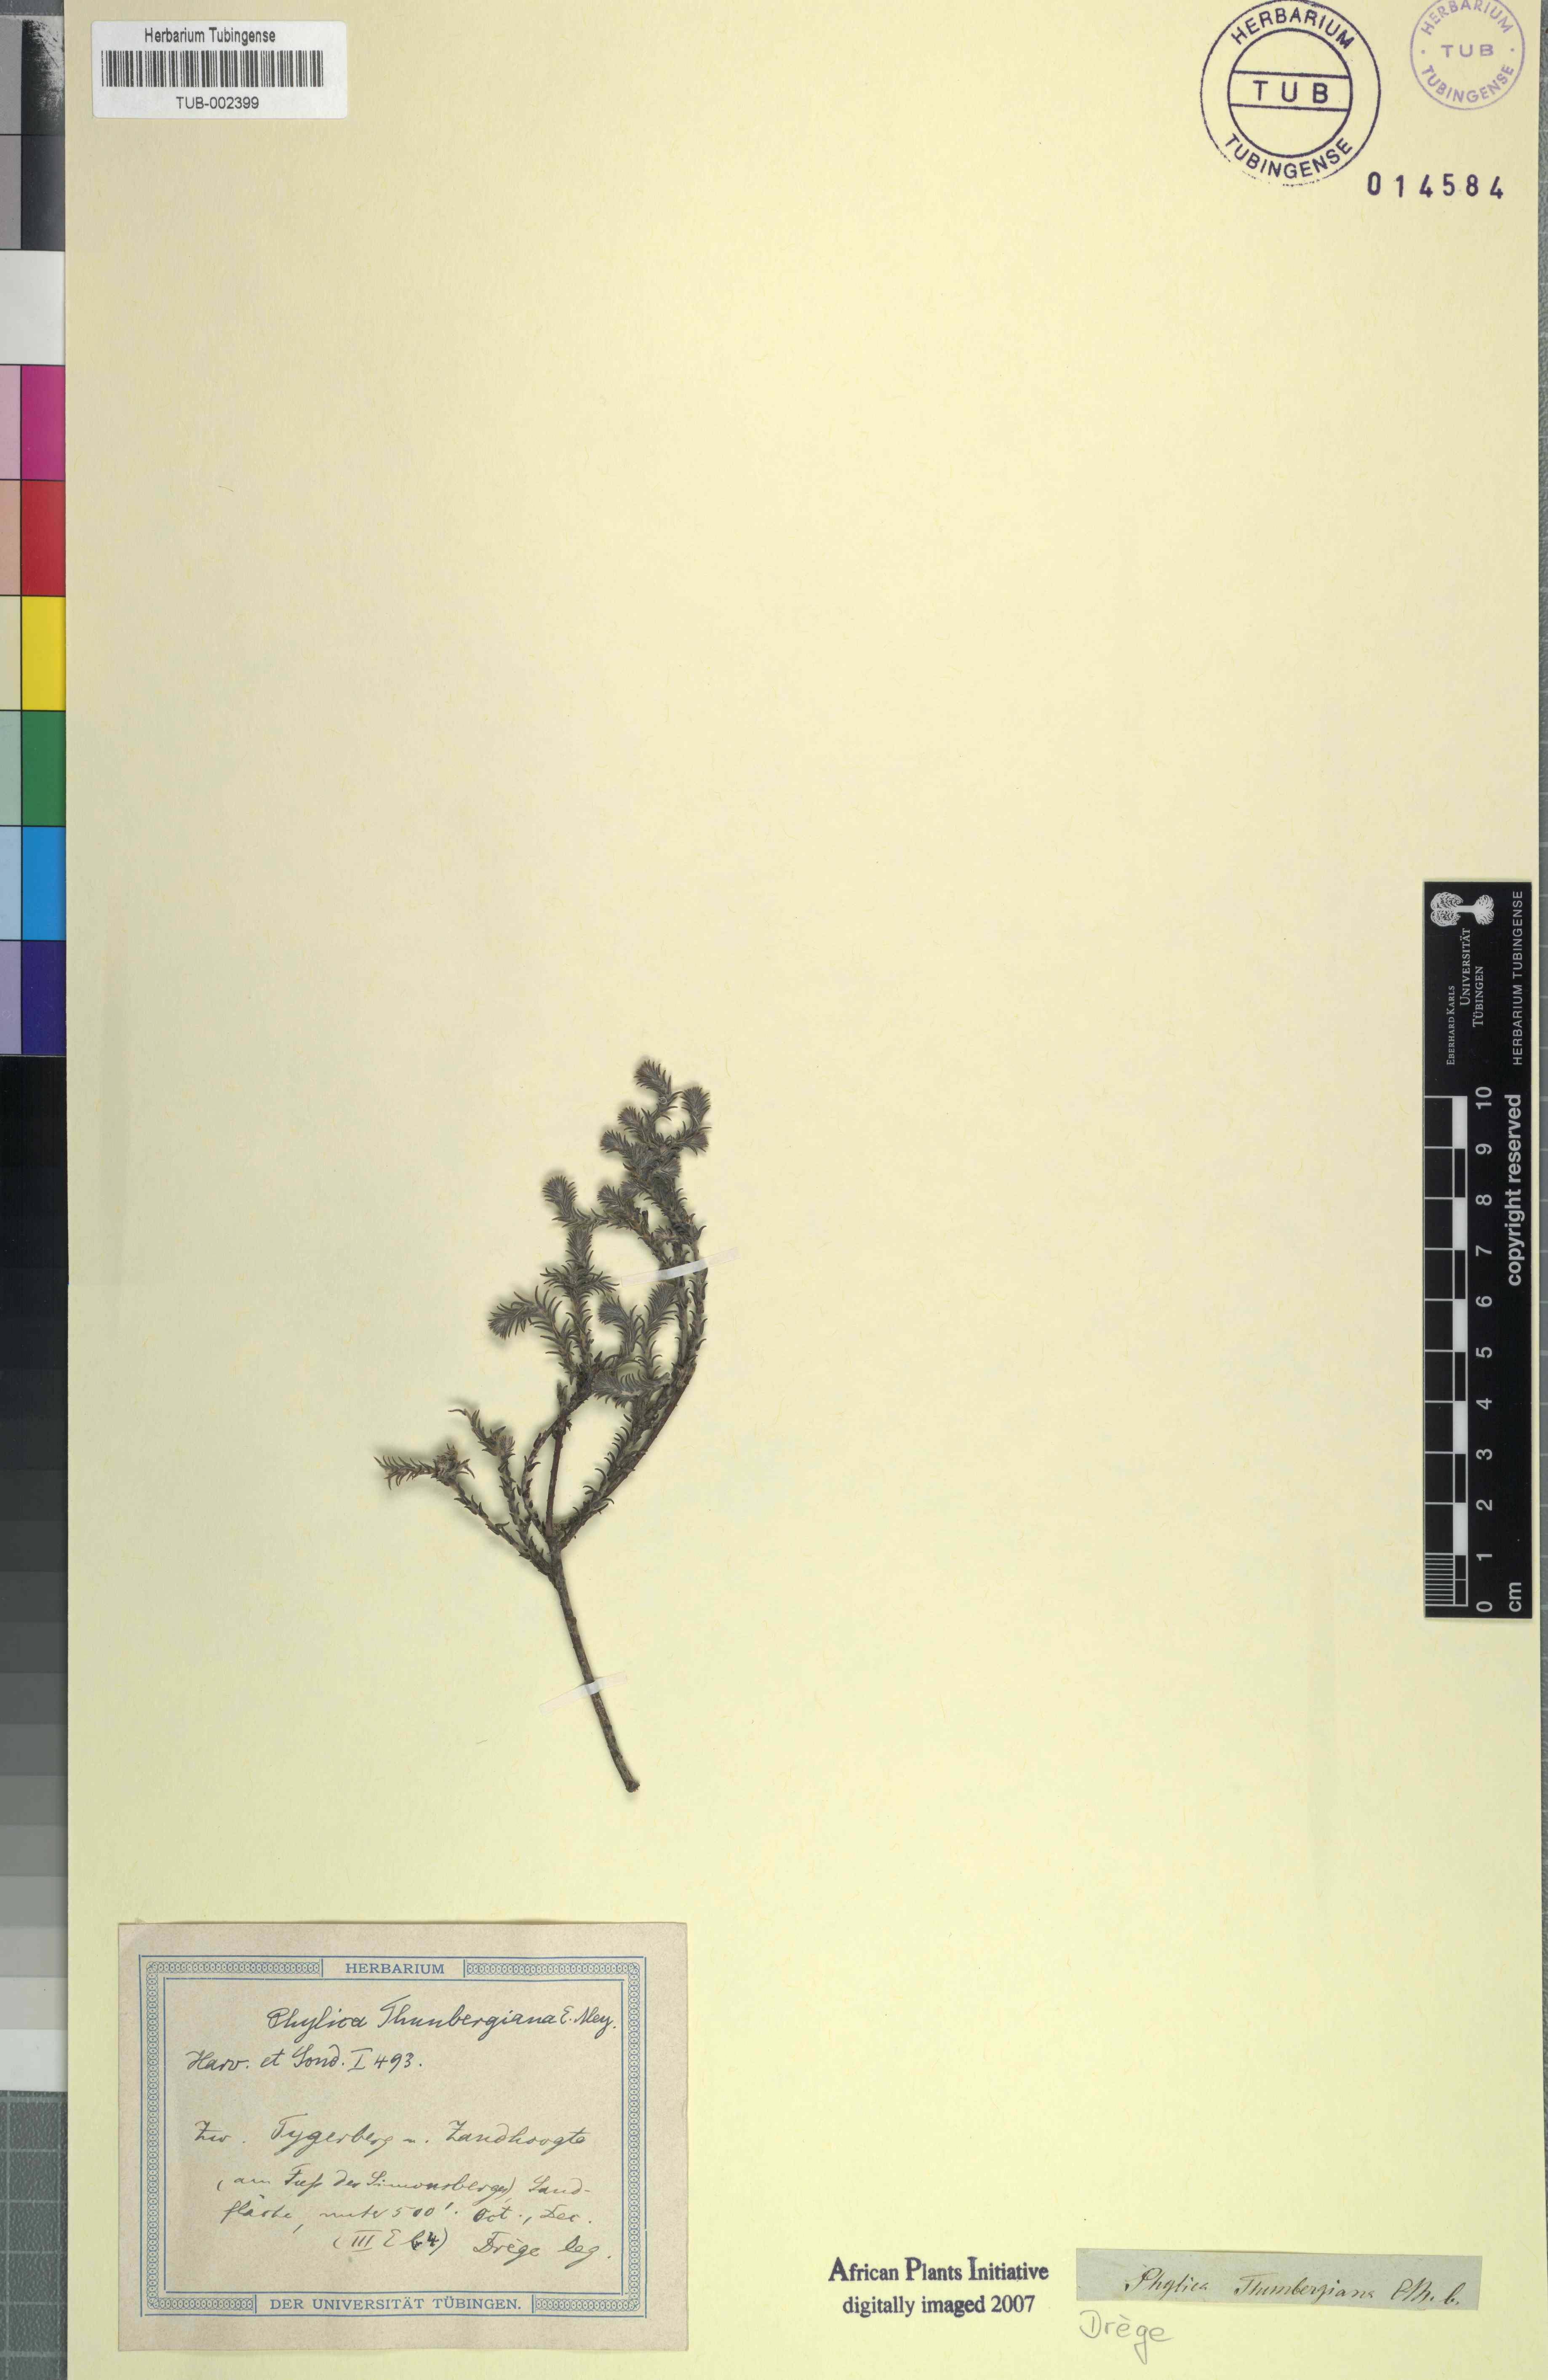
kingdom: Plantae
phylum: Tracheophyta
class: Magnoliopsida
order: Rosales
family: Rhamnaceae
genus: Phylica
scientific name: Phylica thunbergiana
